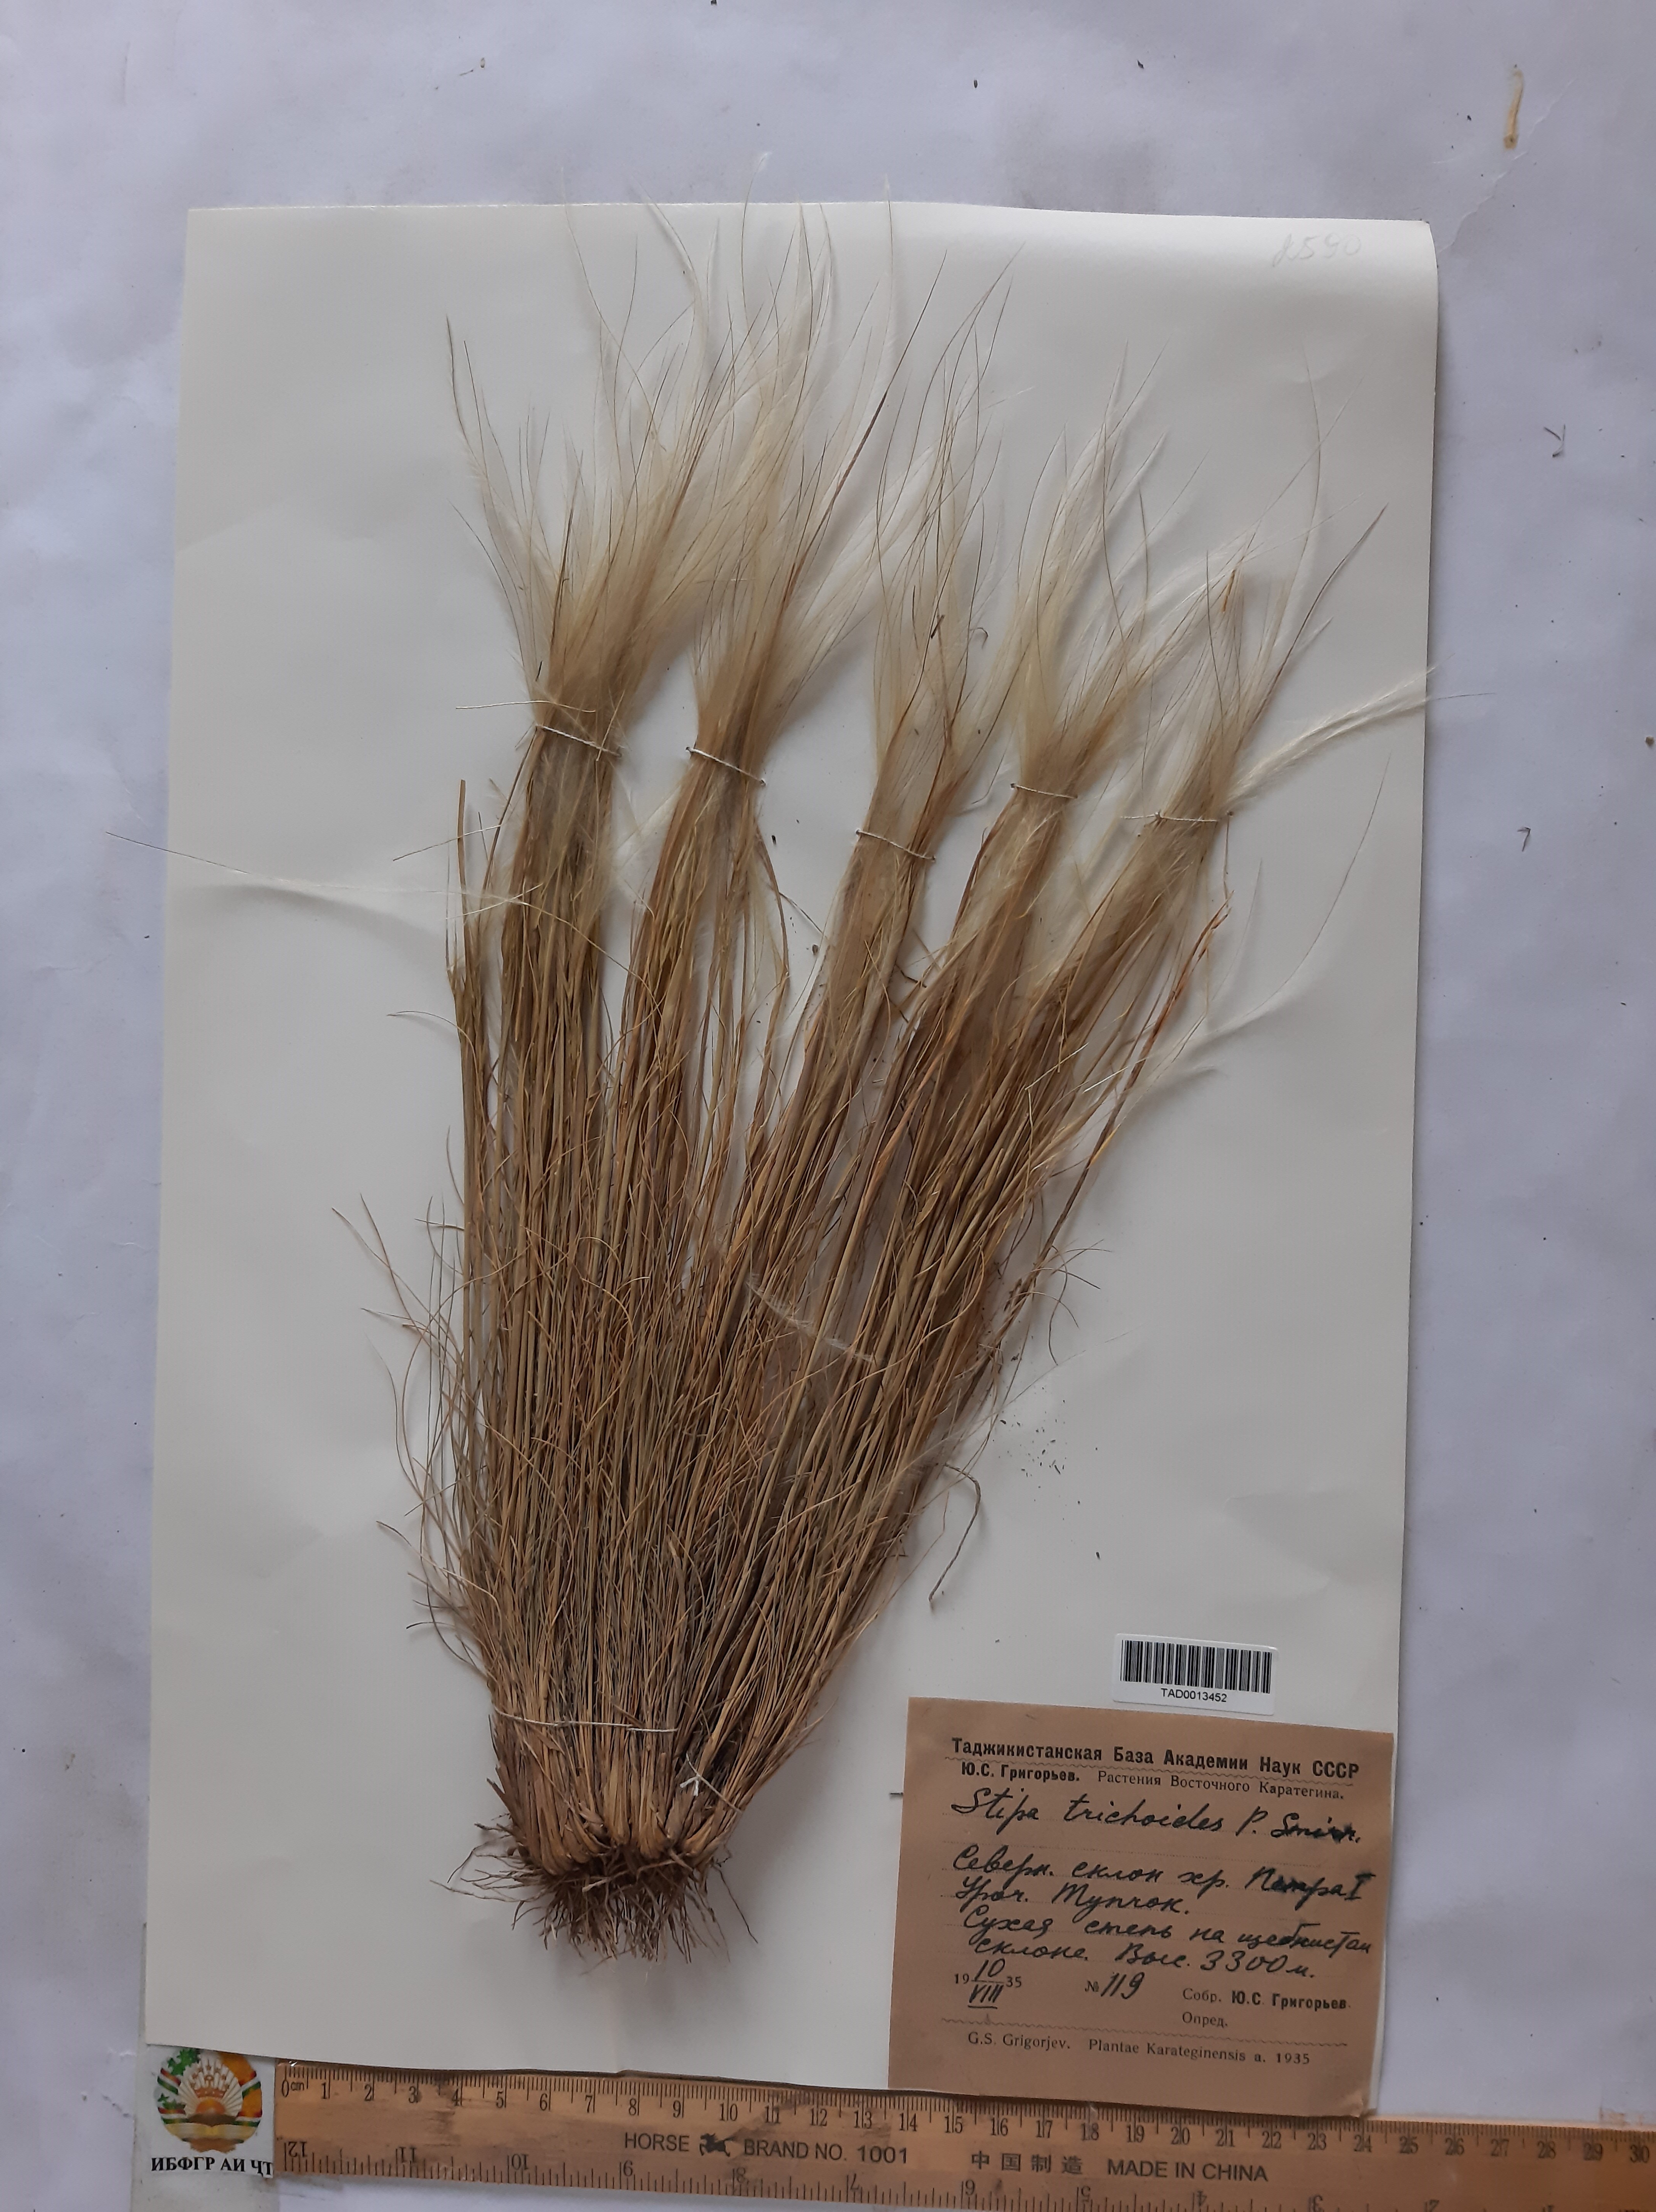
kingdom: Plantae
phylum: Tracheophyta
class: Liliopsida
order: Poales
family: Poaceae
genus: Stipa
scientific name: Stipa trichoides
